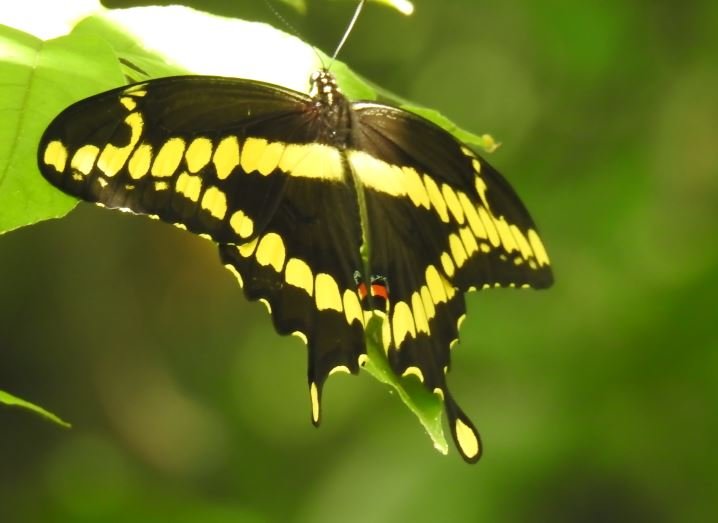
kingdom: Animalia
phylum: Arthropoda
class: Insecta
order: Lepidoptera
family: Papilionidae
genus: Papilio
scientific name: Papilio cresphontes
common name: Eastern Giant Swallowtail
